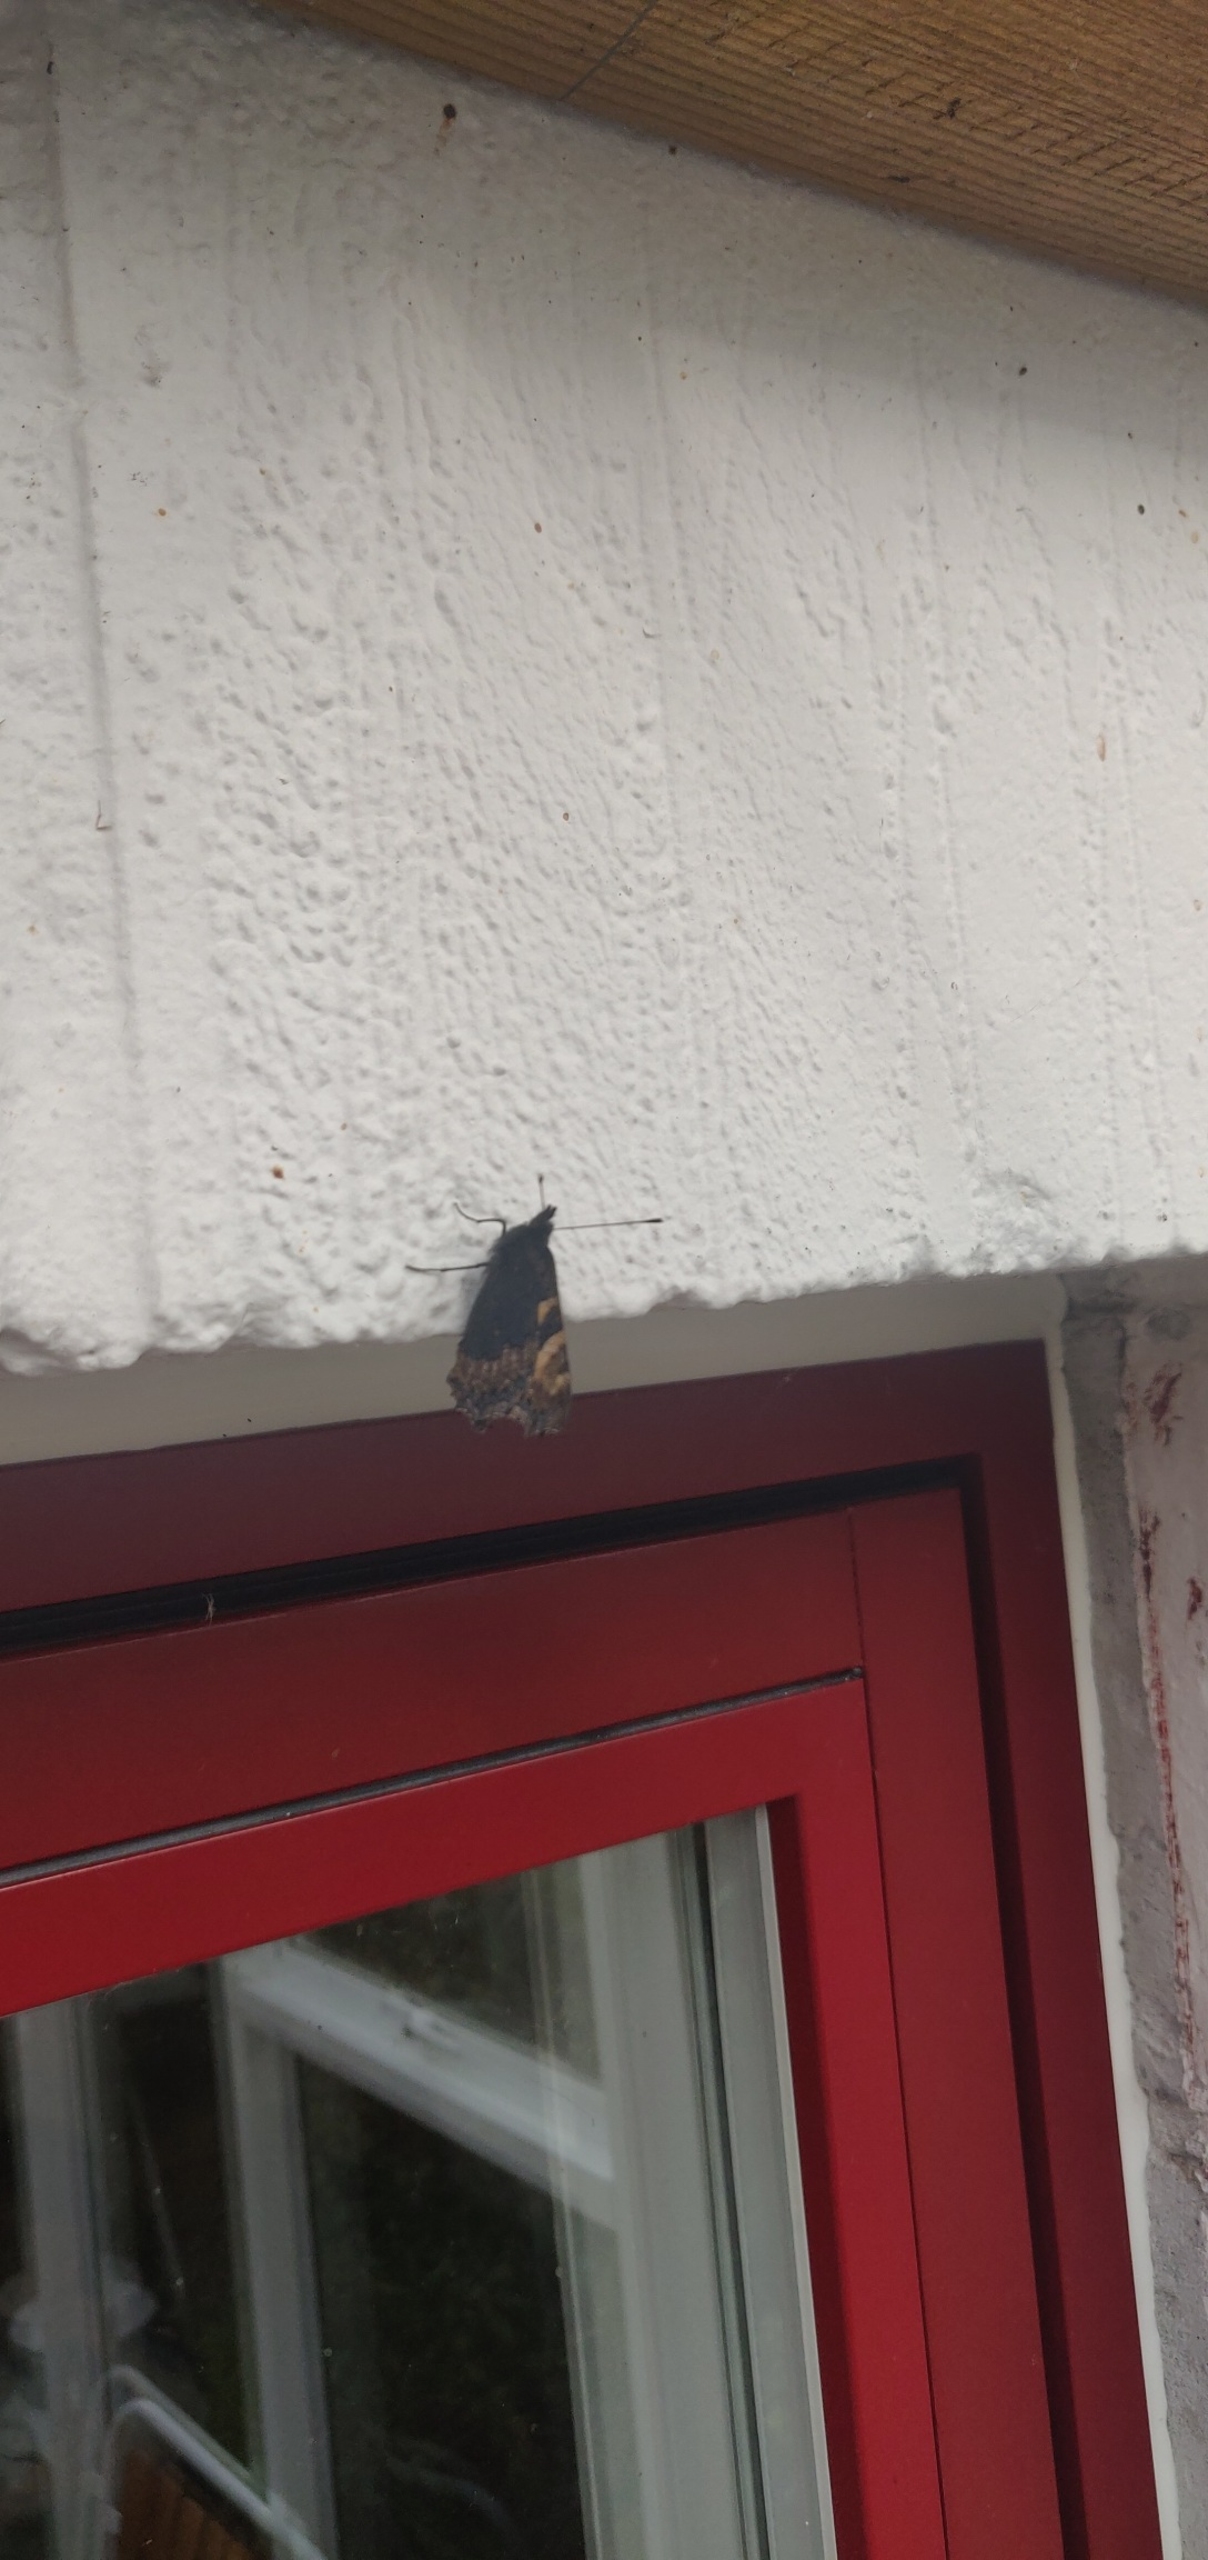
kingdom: Animalia
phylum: Arthropoda
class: Insecta
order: Lepidoptera
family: Nymphalidae
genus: Aglais
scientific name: Aglais urticae
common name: Nældens takvinge
